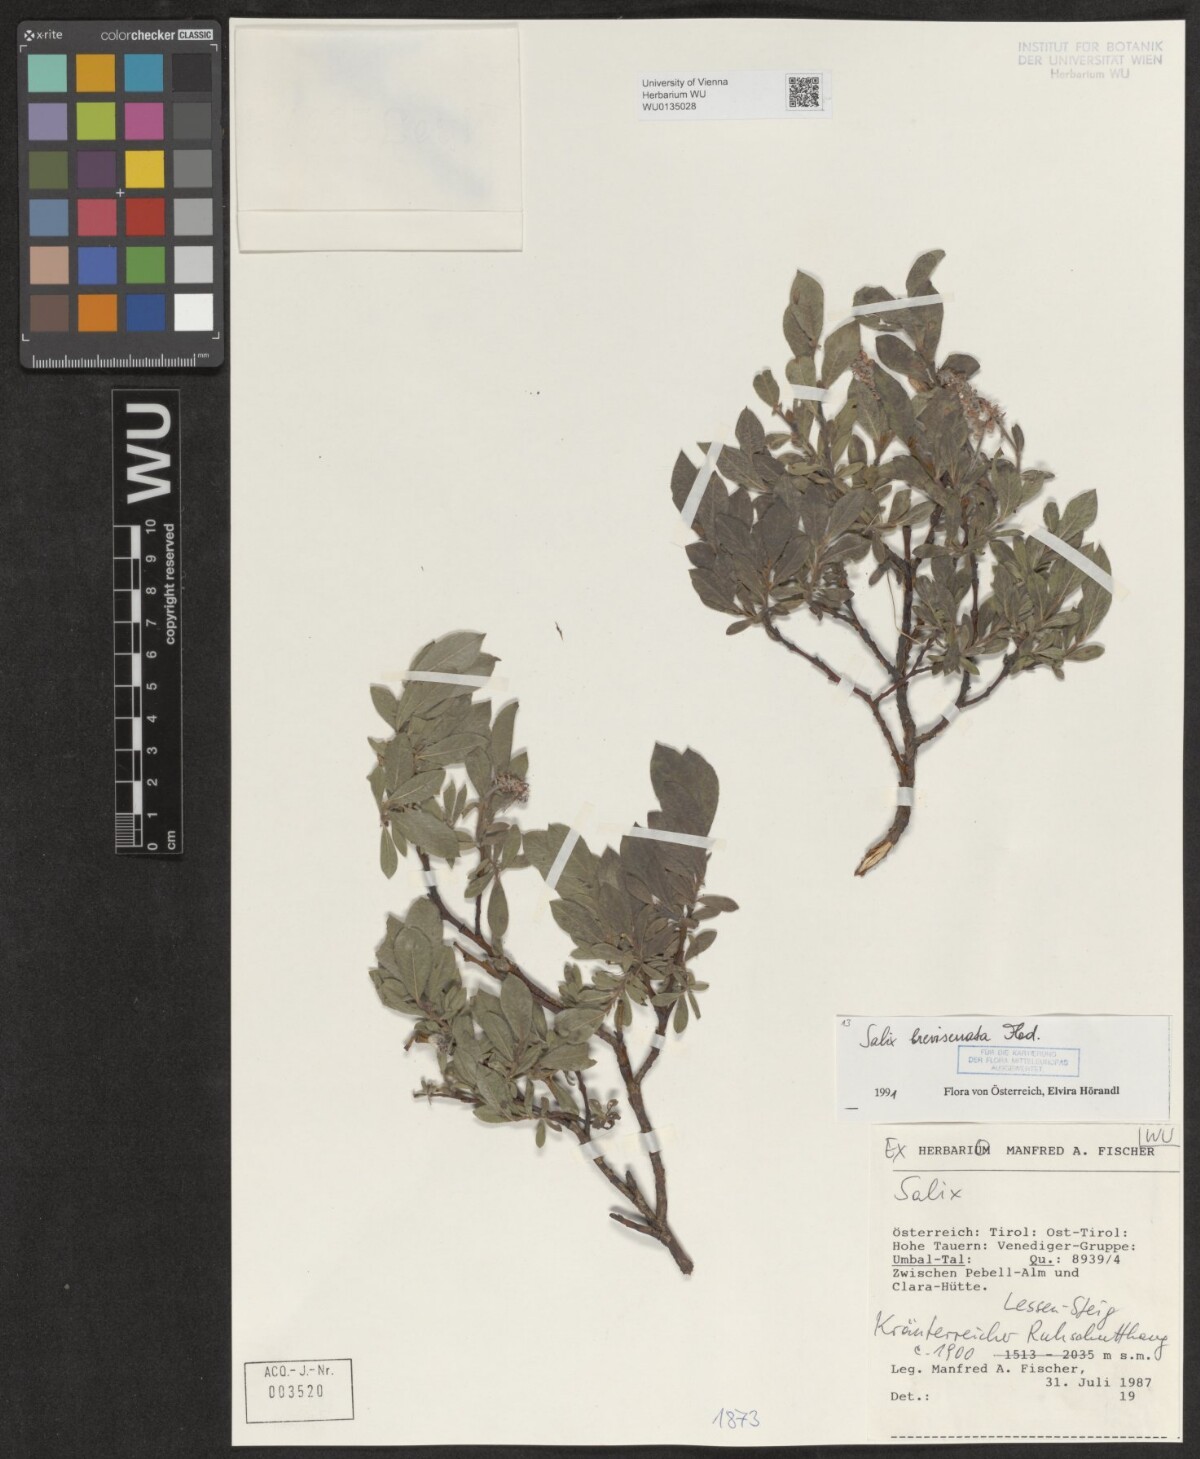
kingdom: Plantae
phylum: Tracheophyta
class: Magnoliopsida
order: Malpighiales
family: Salicaceae
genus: Salix
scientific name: Salix breviserrata
